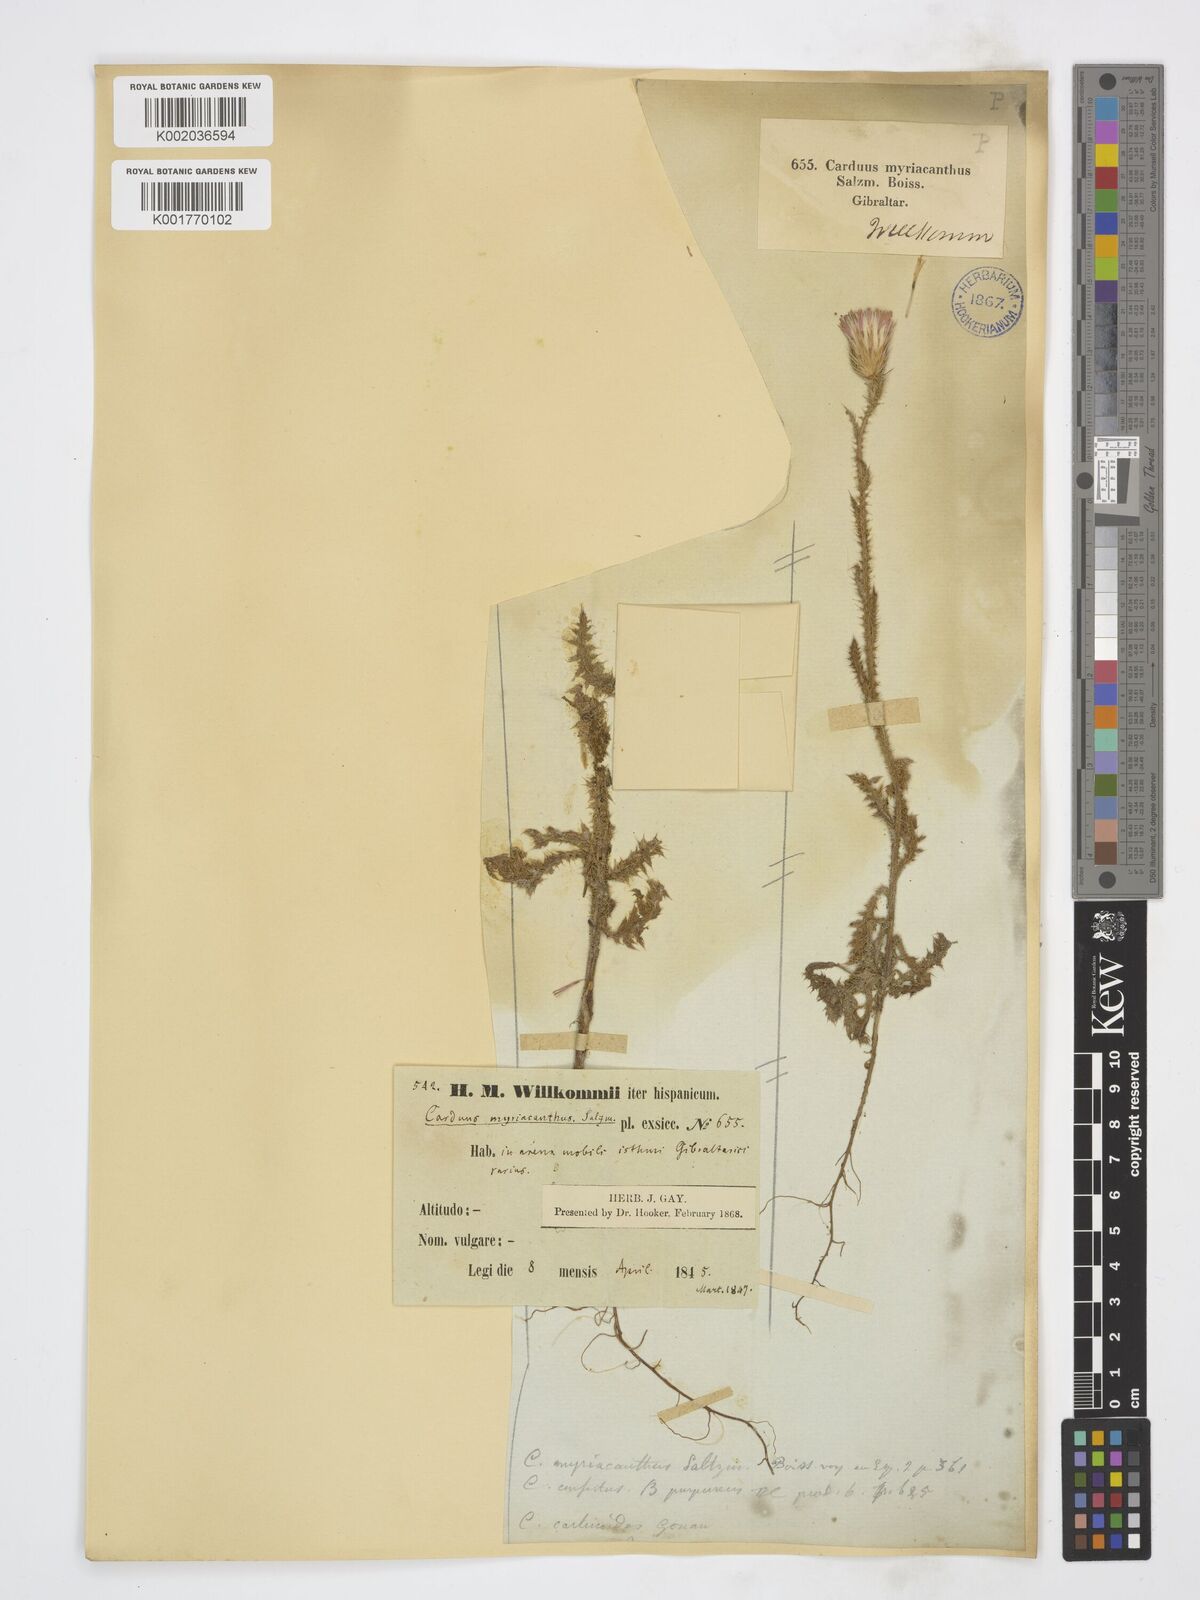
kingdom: Plantae
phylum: Tracheophyta
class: Magnoliopsida
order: Asterales
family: Asteraceae
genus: Carduus
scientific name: Carduus myriacanthus
